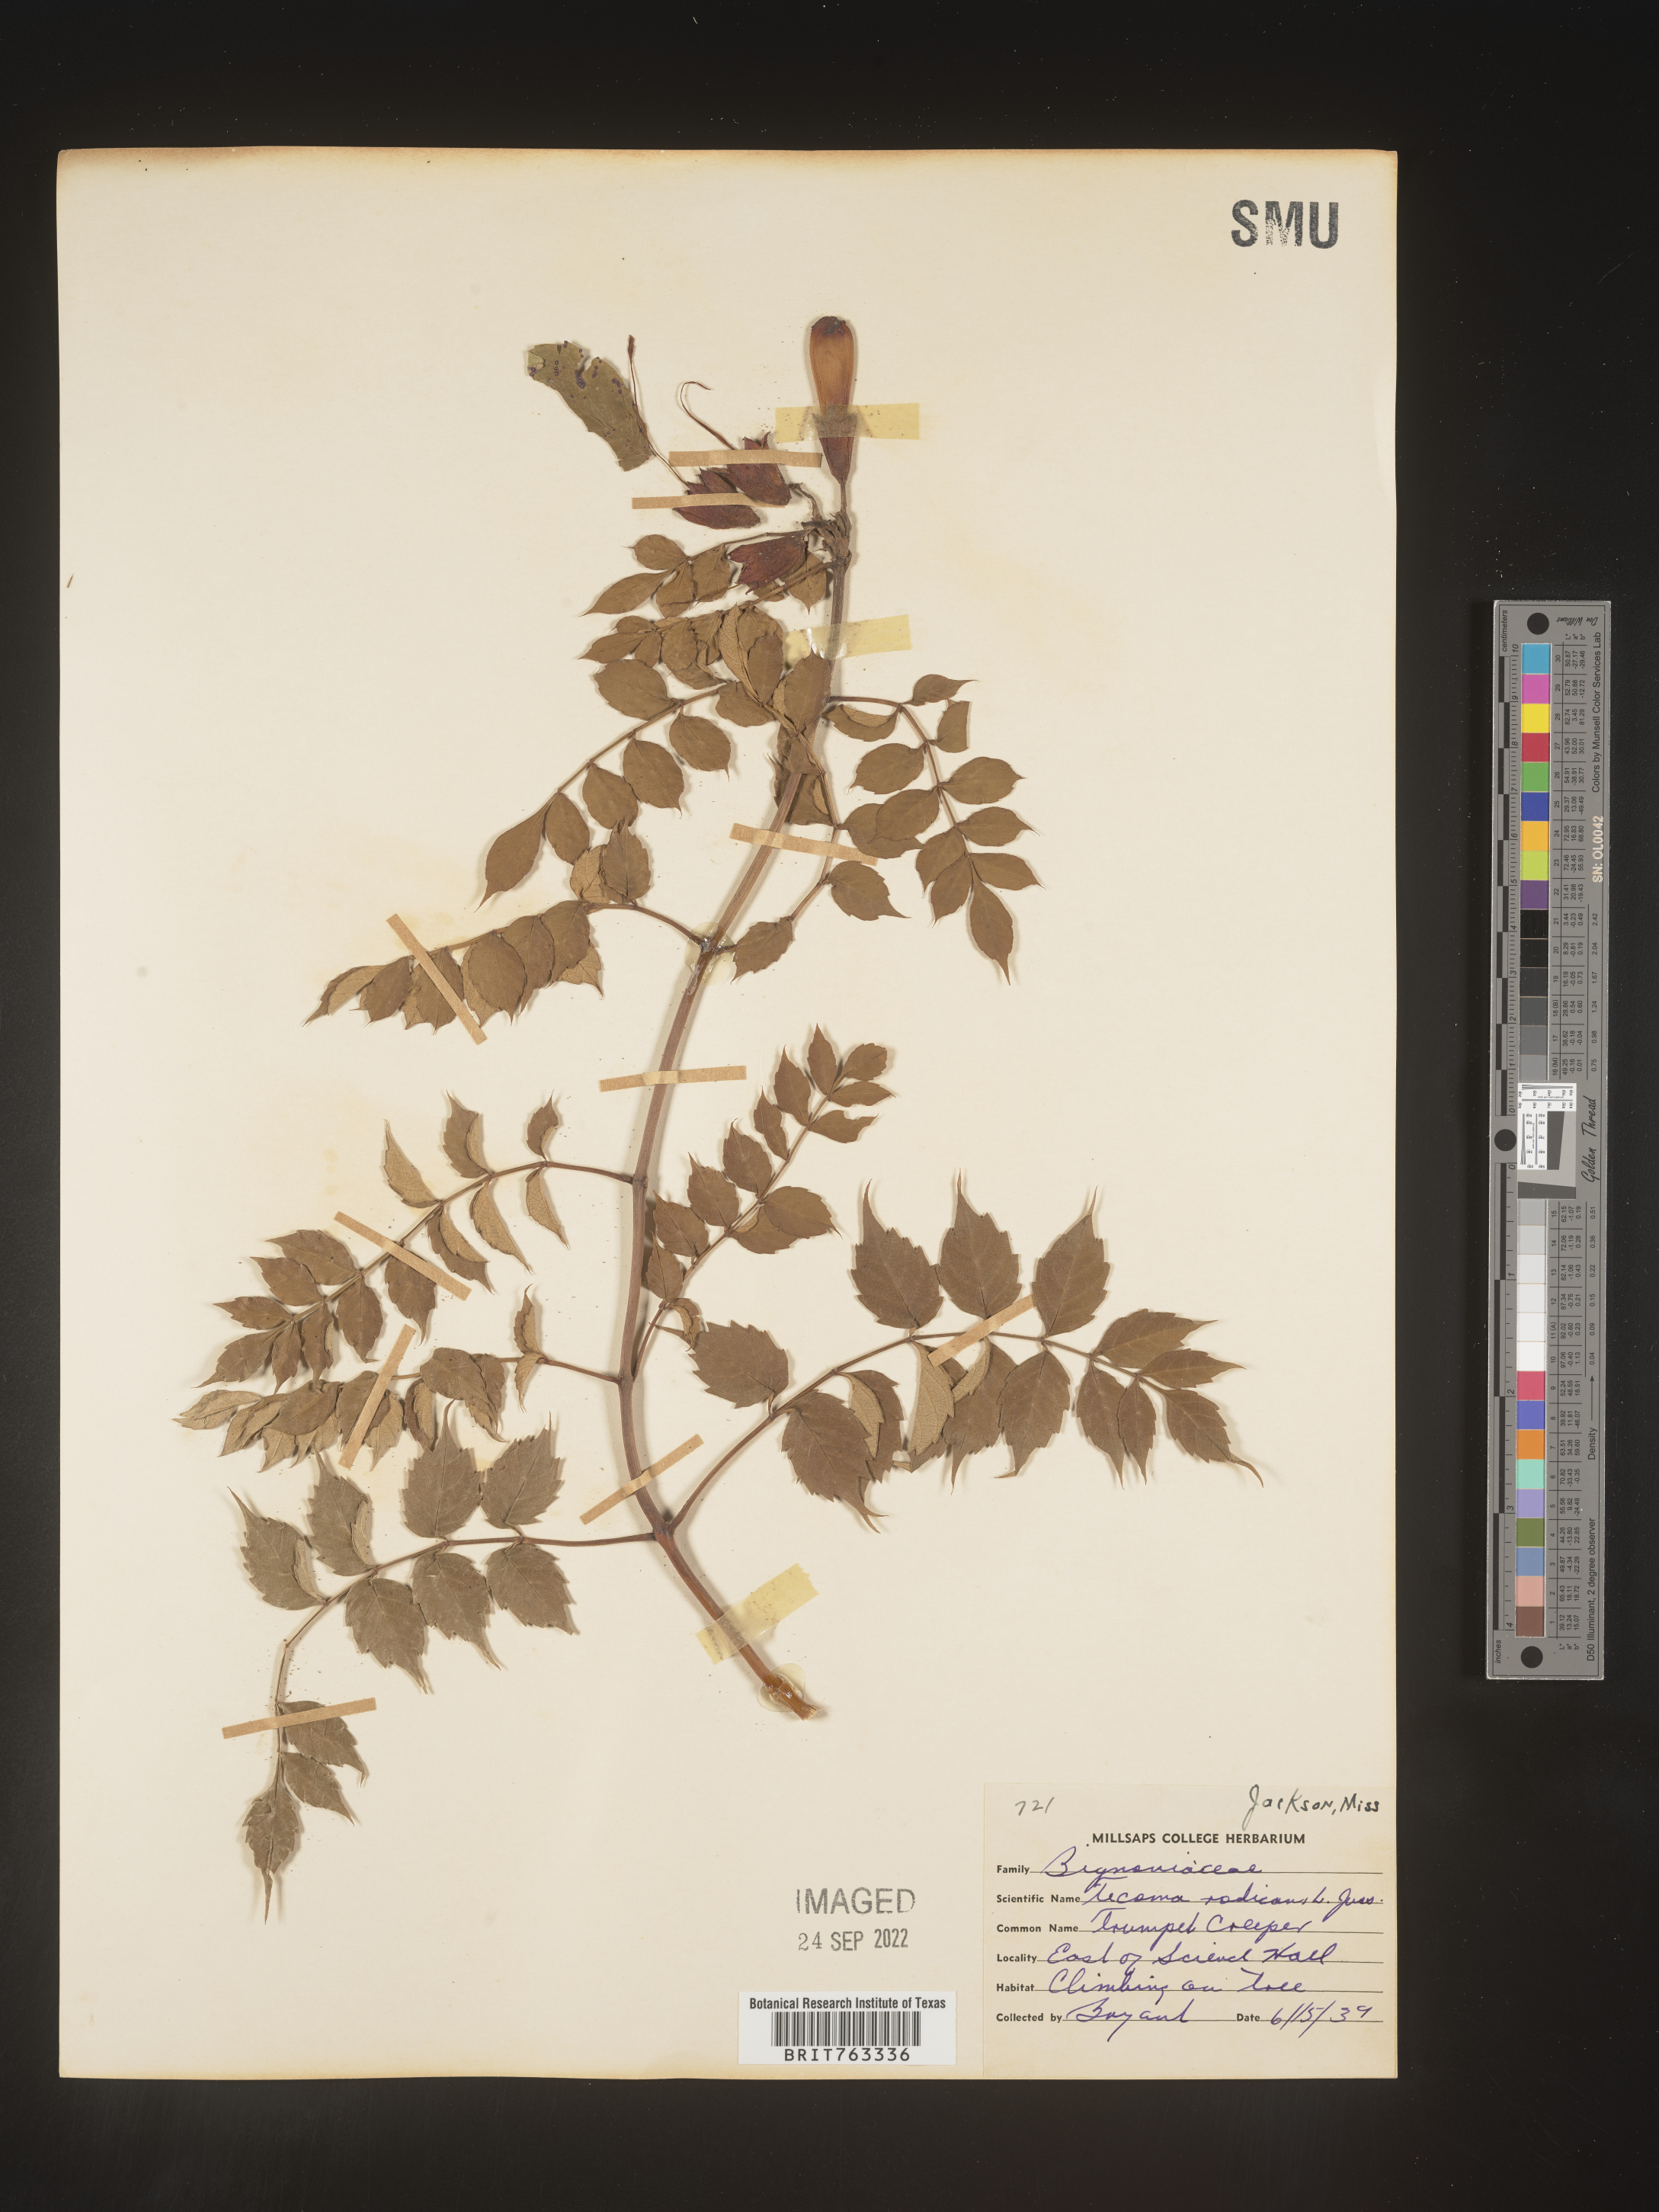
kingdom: Plantae
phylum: Tracheophyta
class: Magnoliopsida
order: Lamiales
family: Bignoniaceae
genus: Campsis
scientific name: Campsis radicans
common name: Trumpet-creeper
